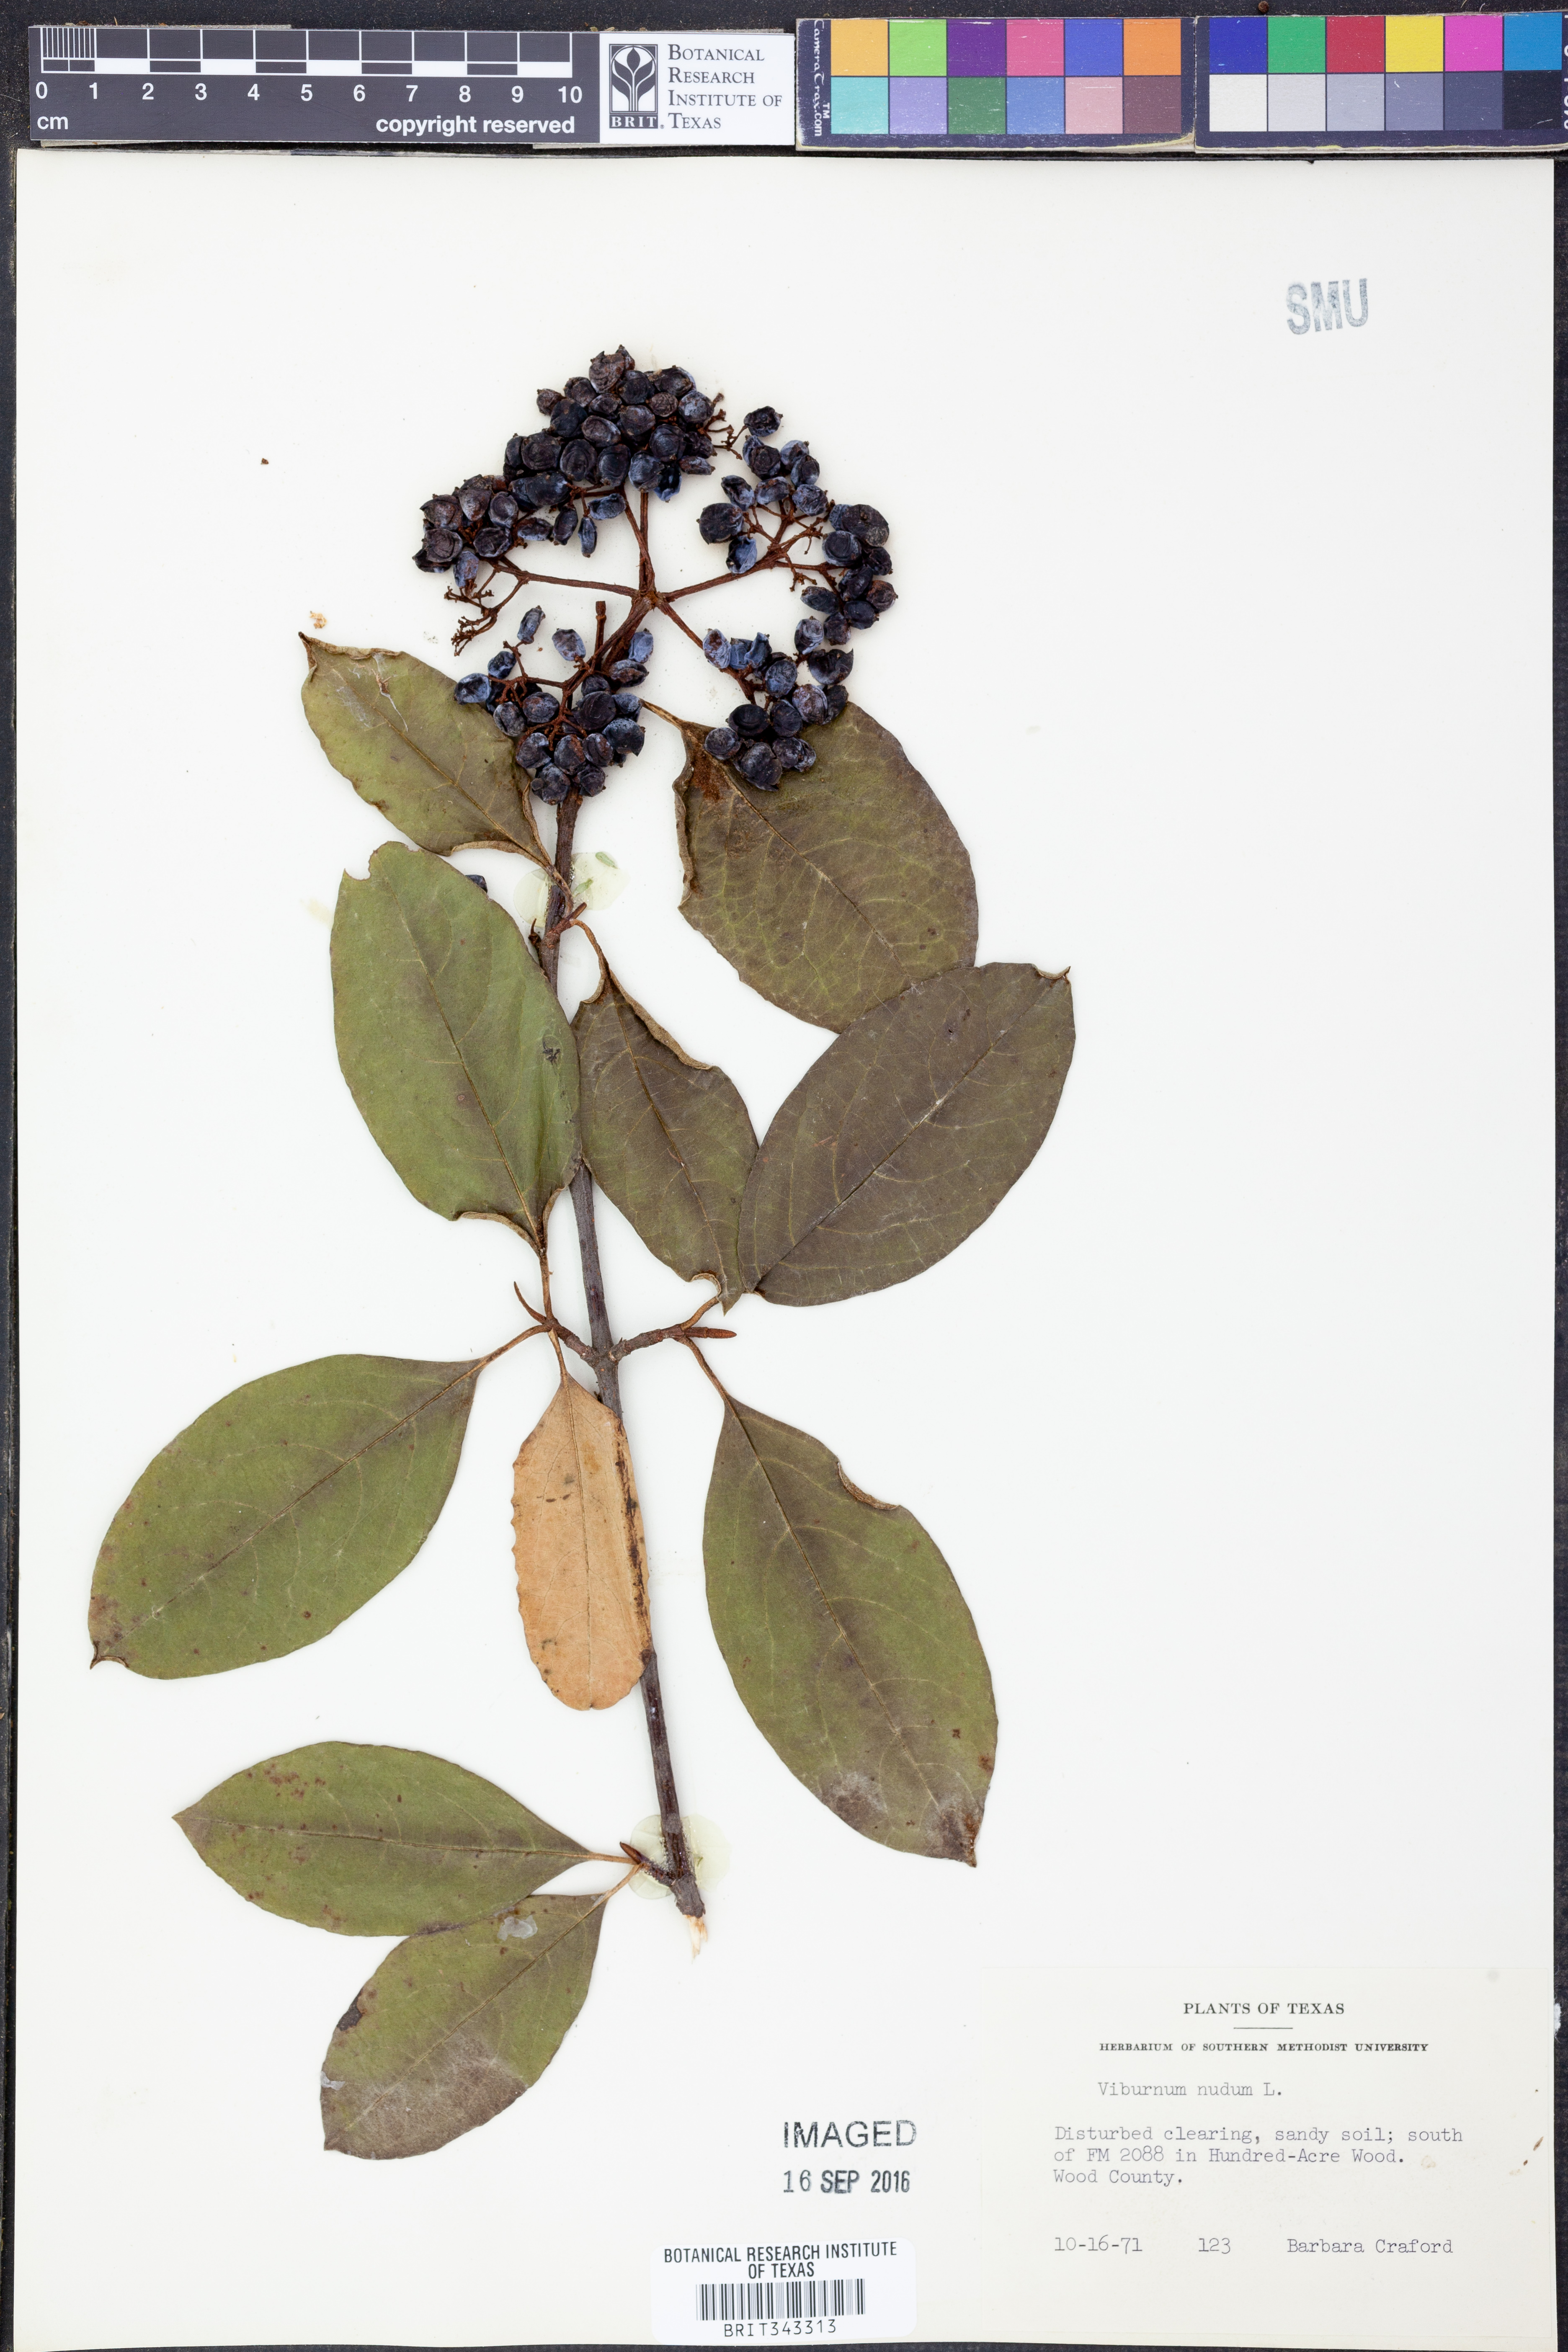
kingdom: Plantae
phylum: Tracheophyta
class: Magnoliopsida
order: Dipsacales
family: Viburnaceae
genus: Viburnum
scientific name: Viburnum nudum
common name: Possum haw
